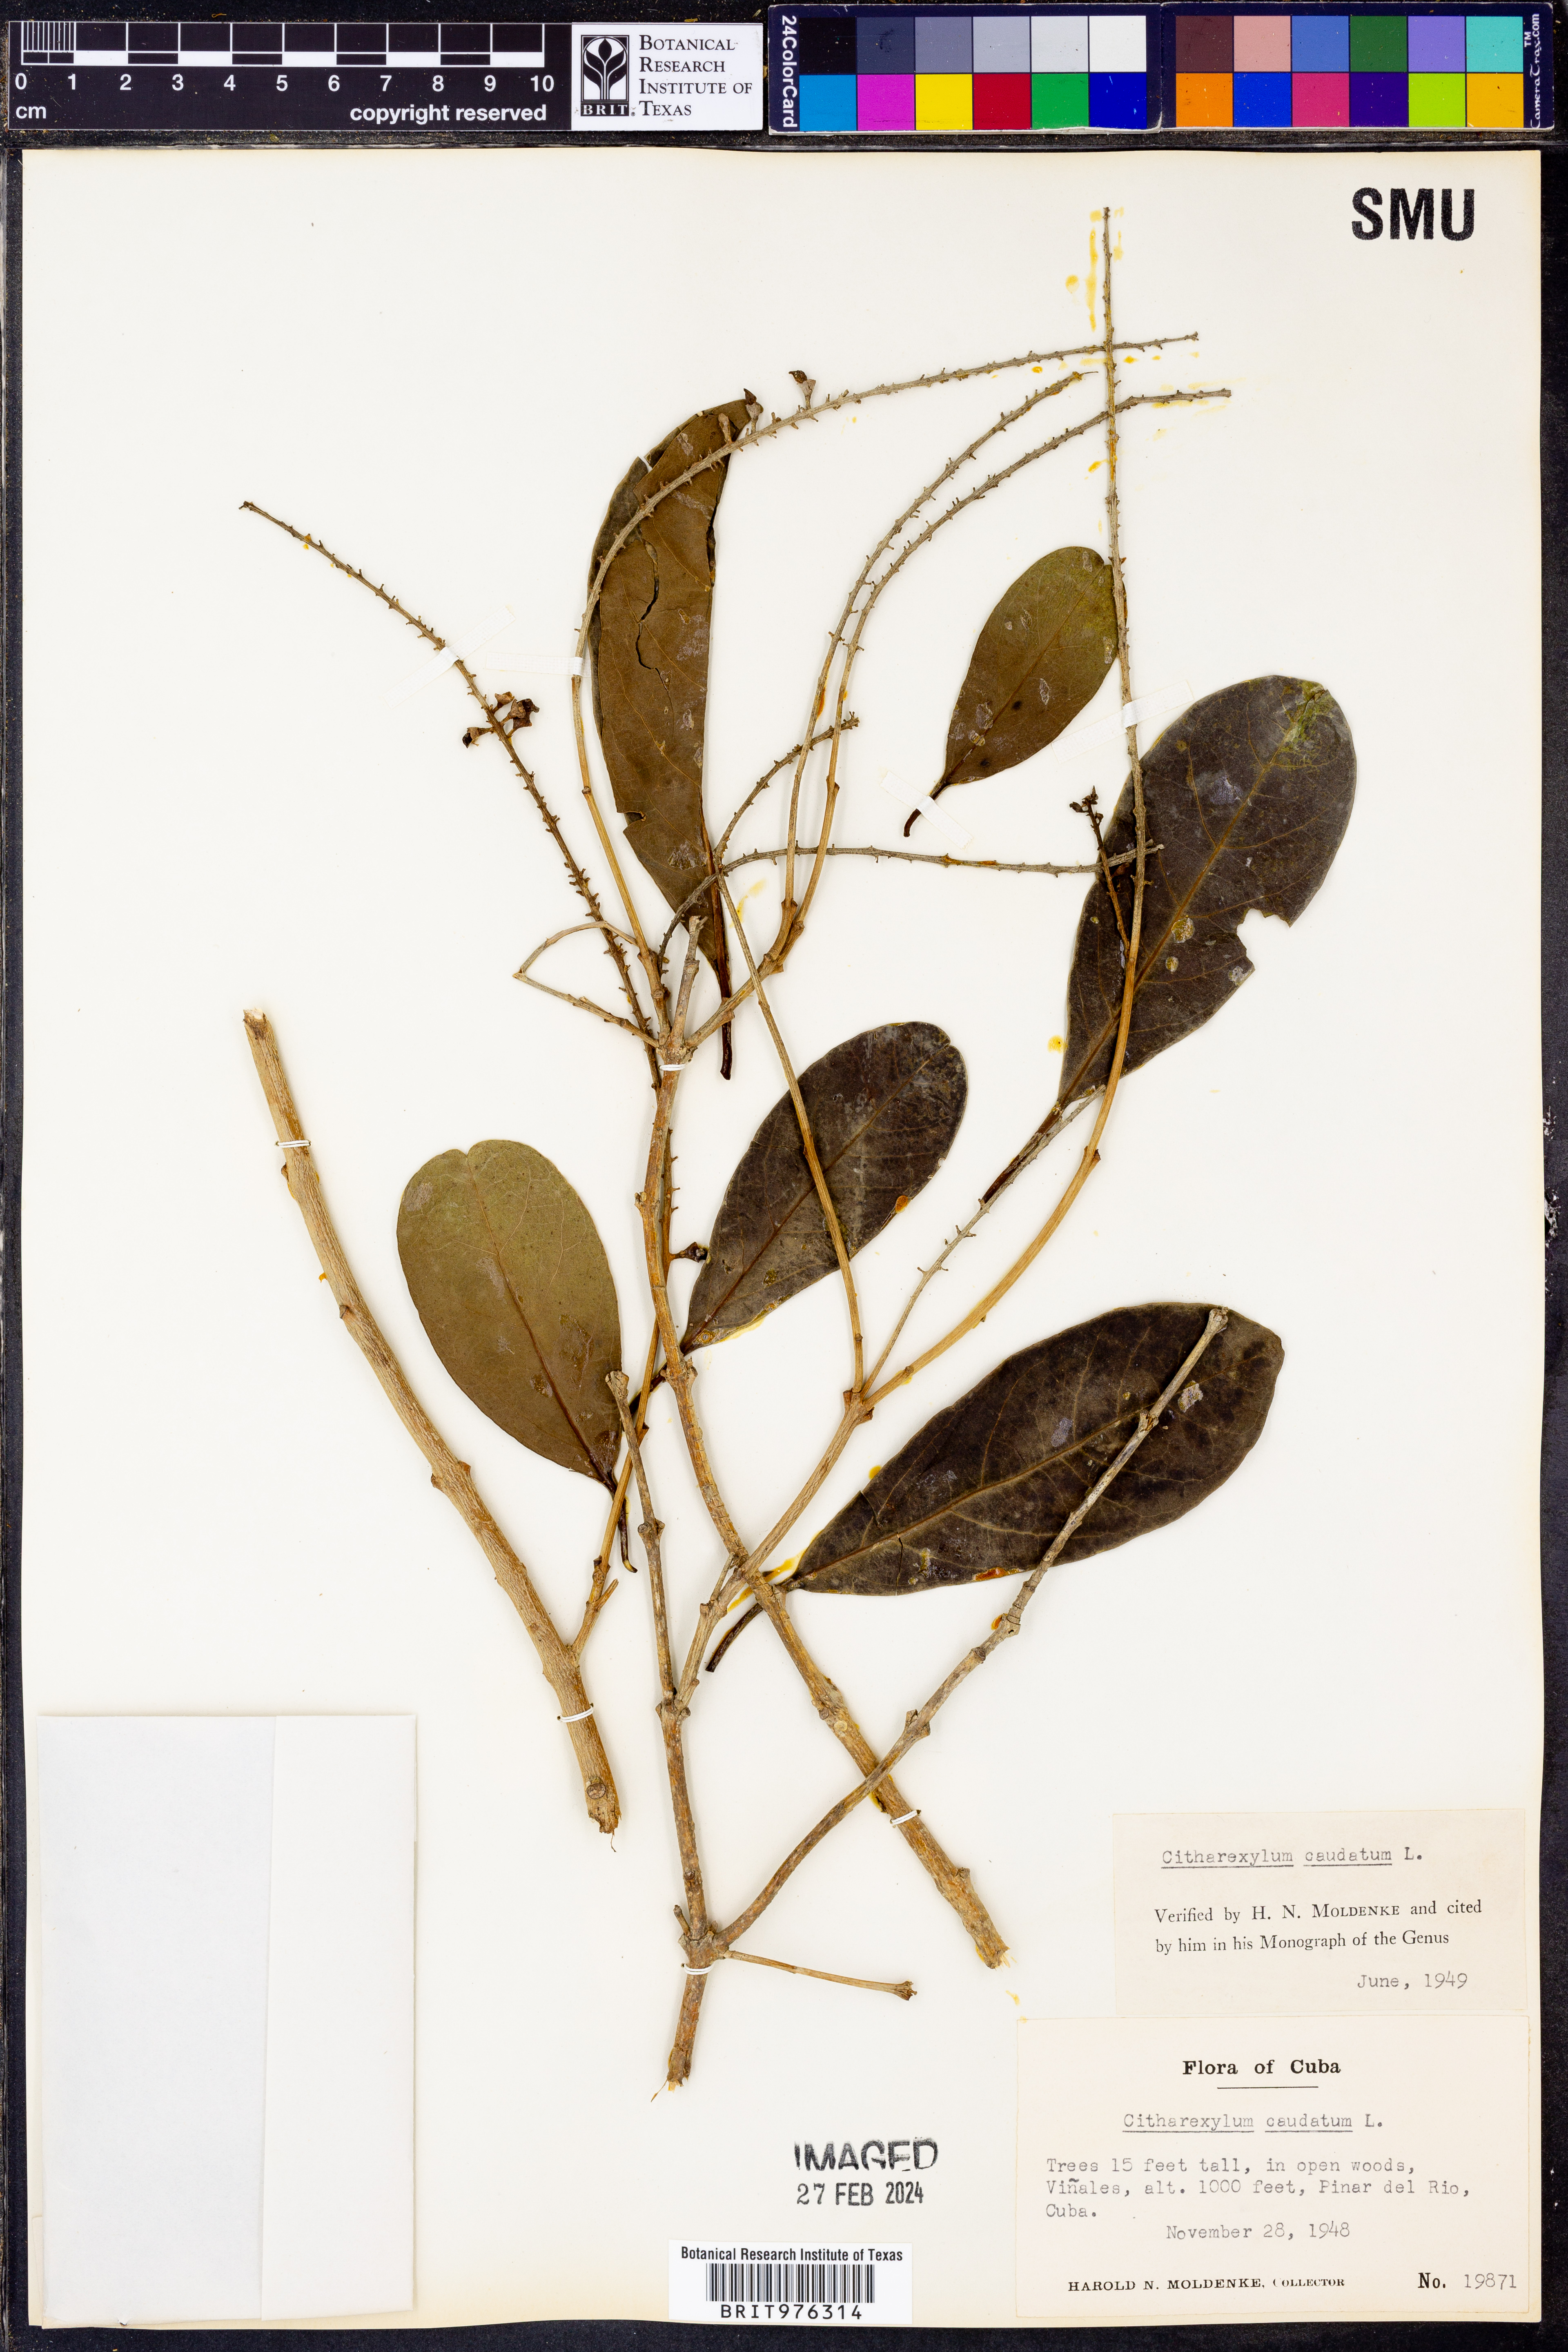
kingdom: Plantae
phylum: Tracheophyta
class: Magnoliopsida
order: Lamiales
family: Verbenaceae
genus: Citharexylum
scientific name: Citharexylum
